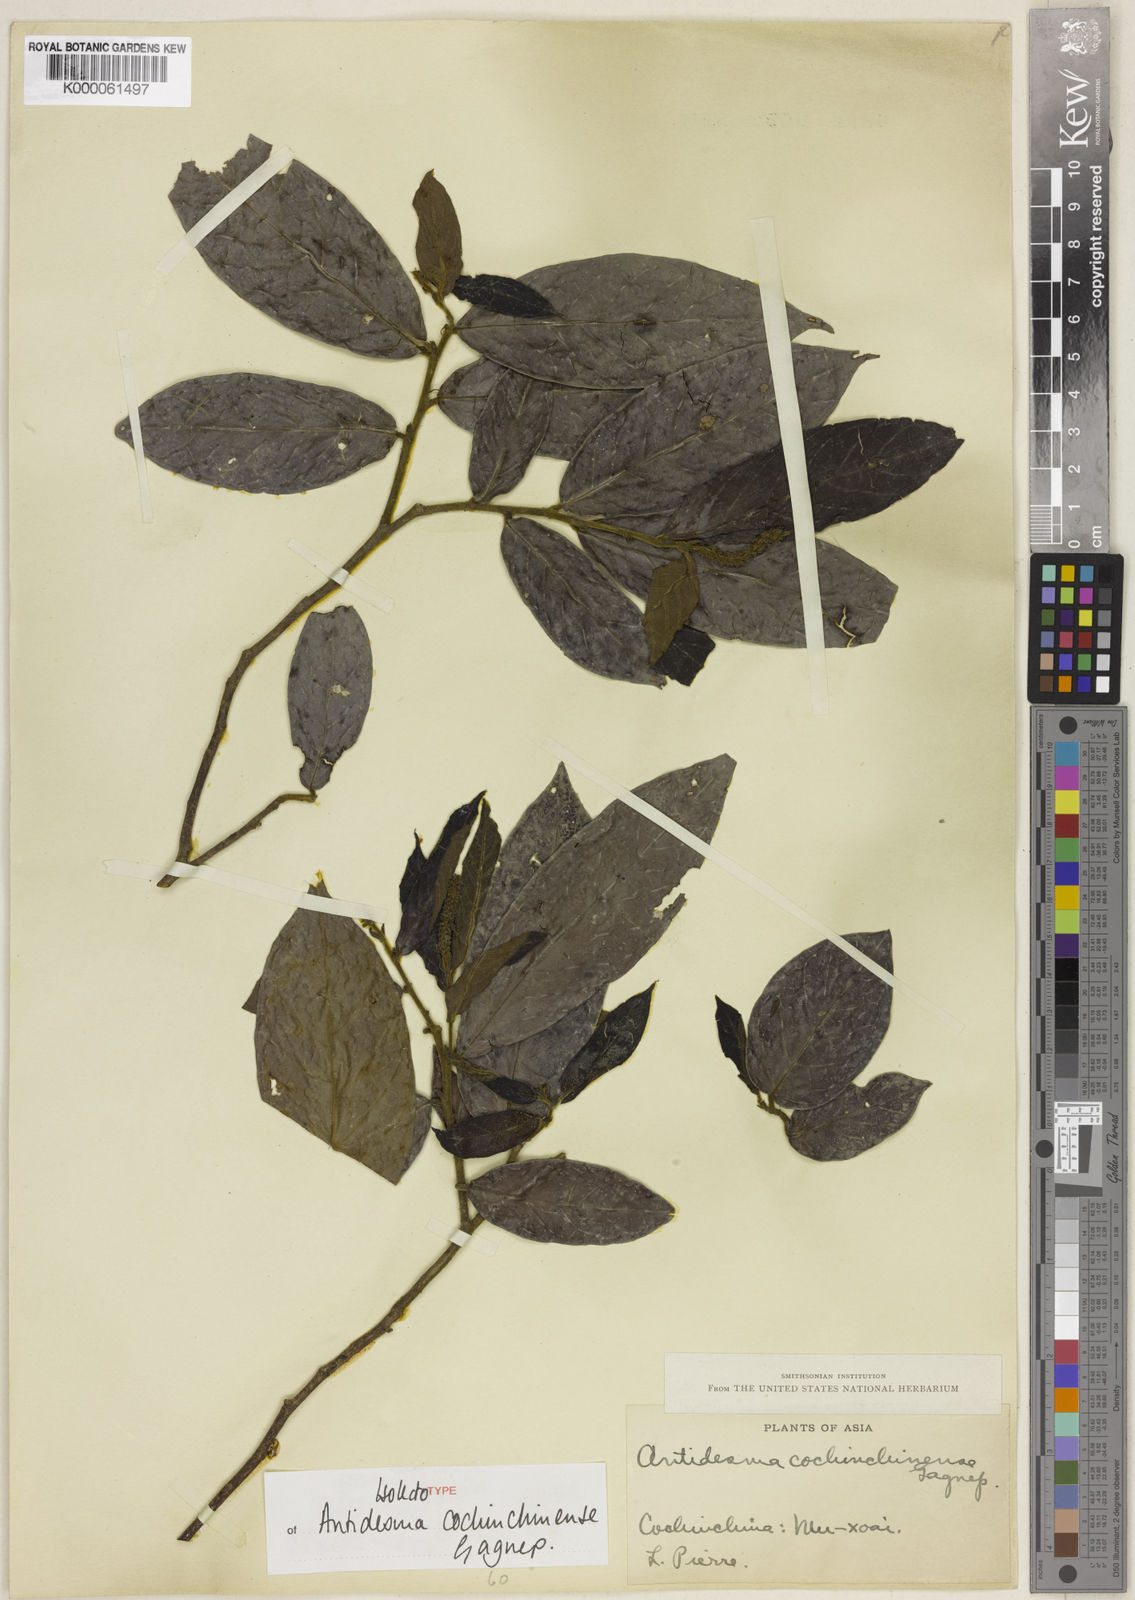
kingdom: Plantae
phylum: Tracheophyta
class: Magnoliopsida
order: Malpighiales
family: Phyllanthaceae
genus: Antidesma
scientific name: Antidesma cochinchinense
